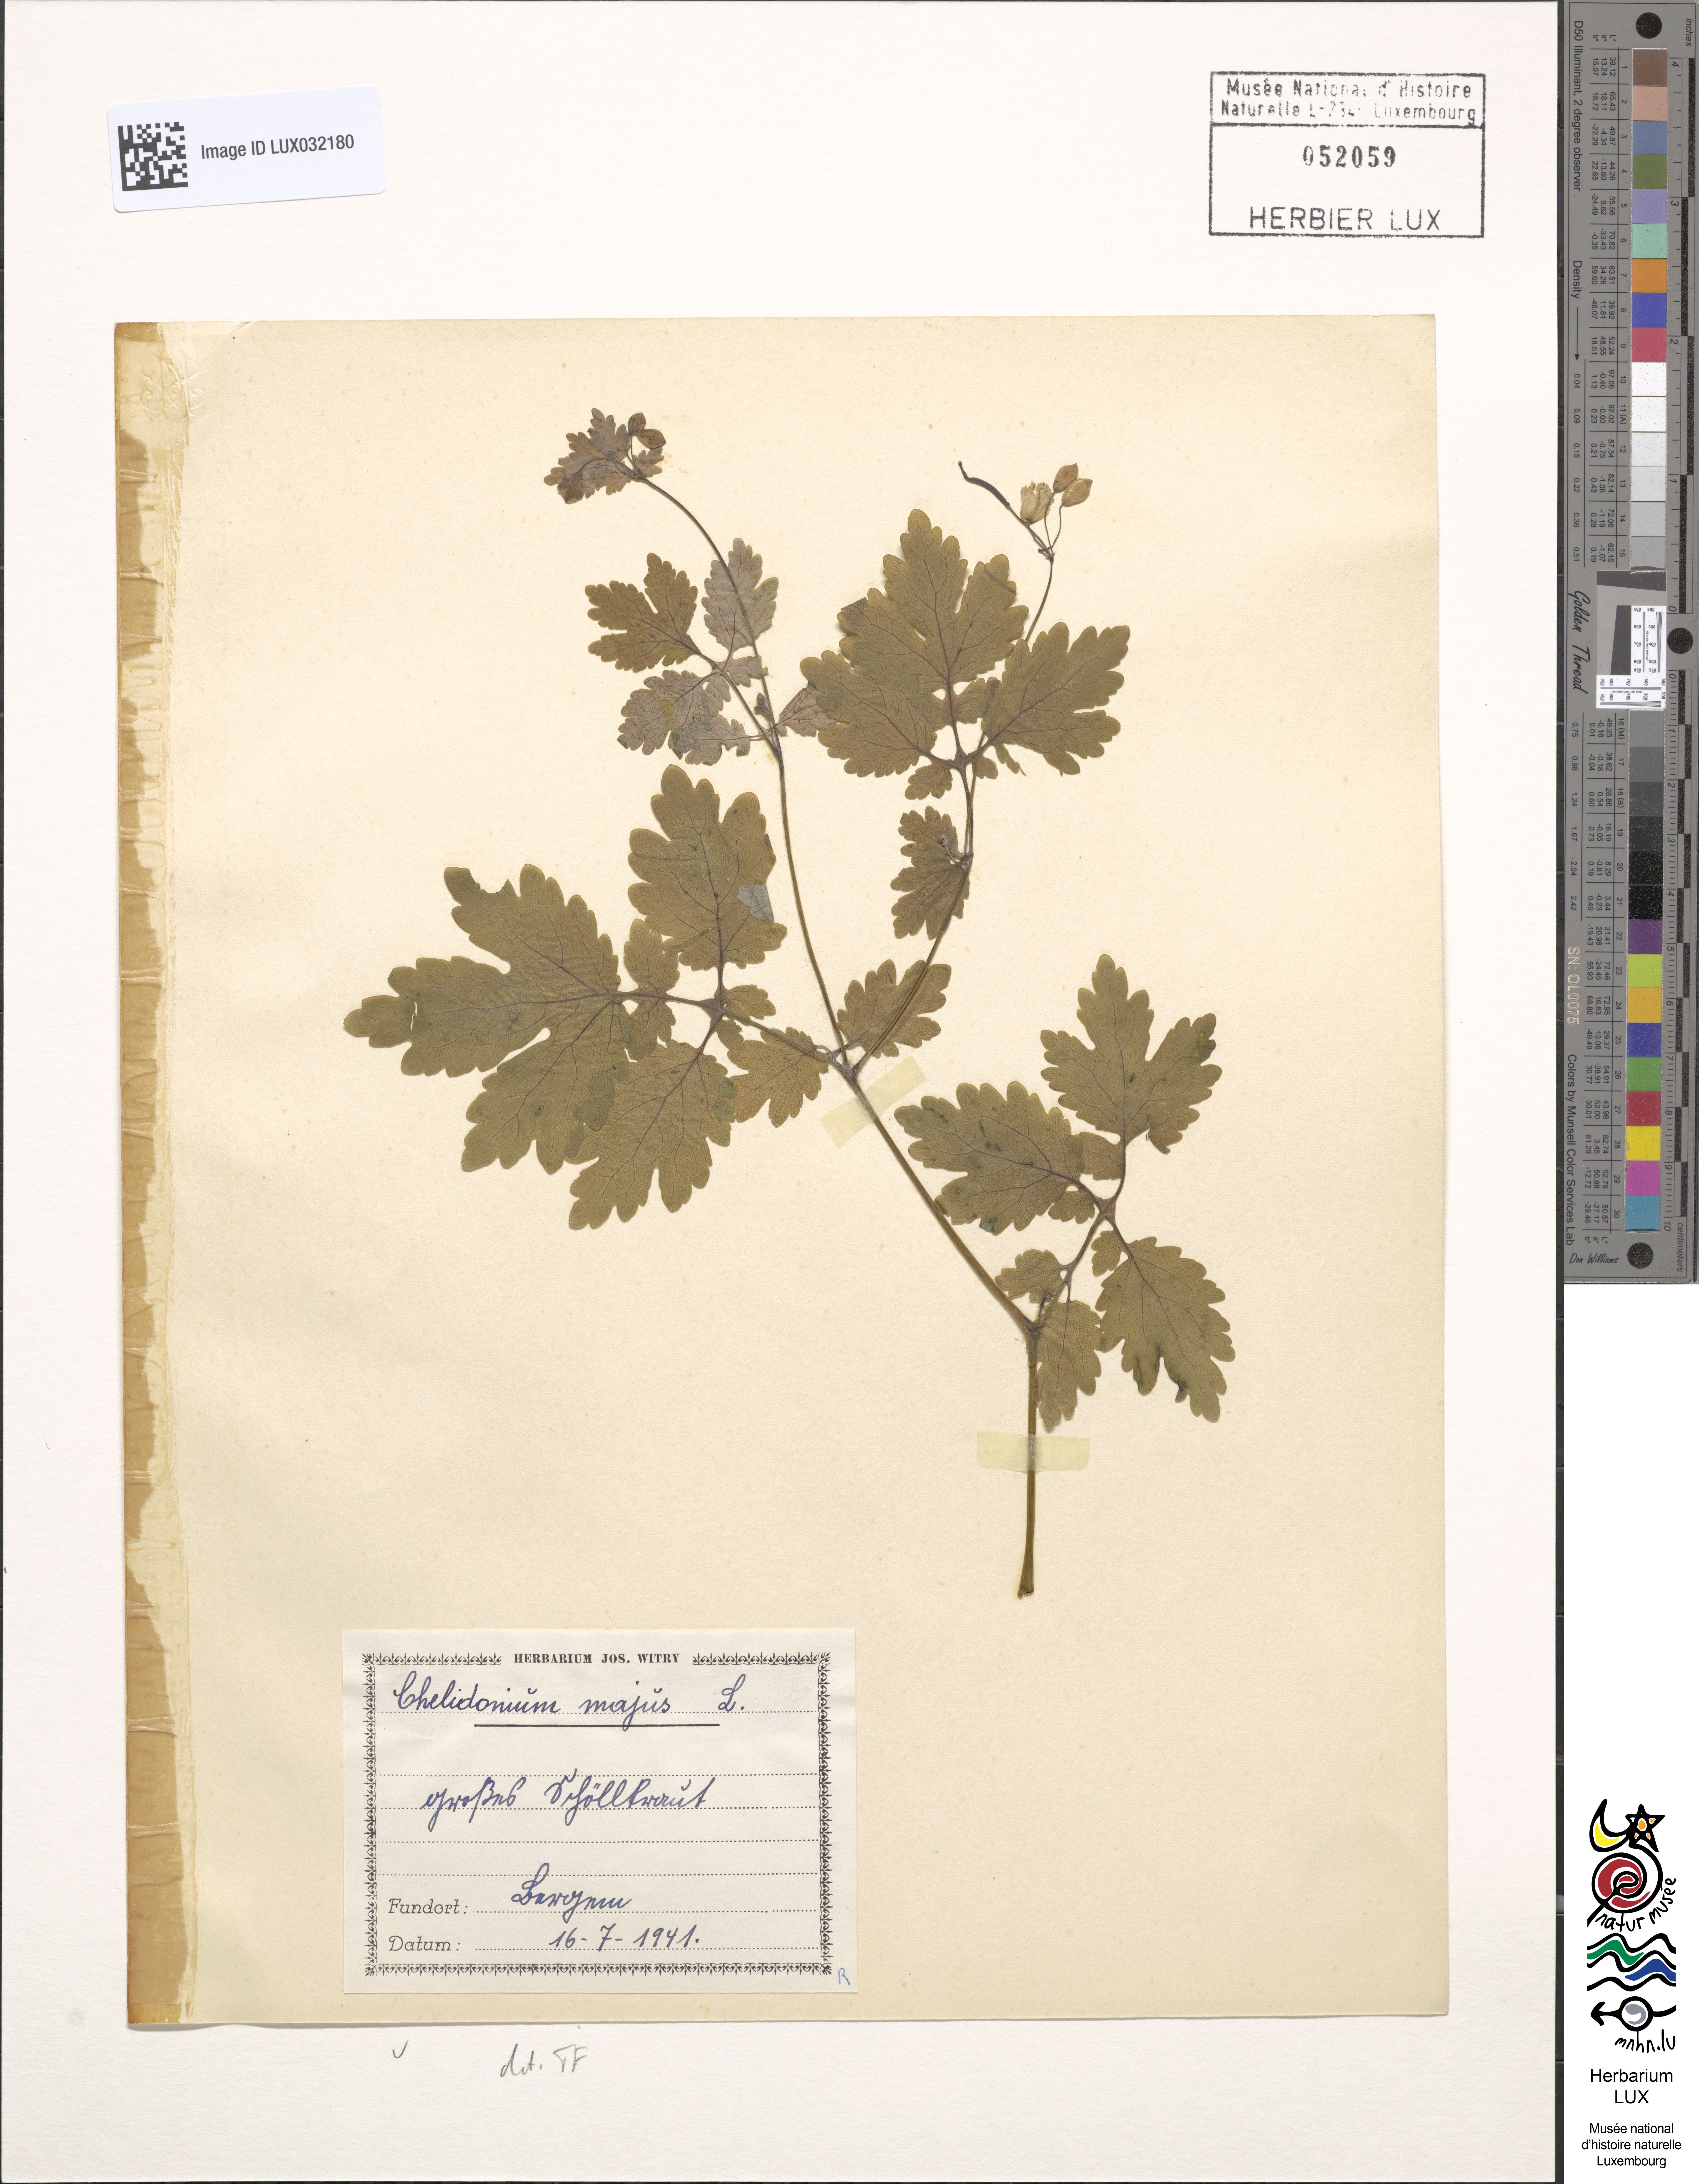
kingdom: Plantae
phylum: Tracheophyta
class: Magnoliopsida
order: Ranunculales
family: Papaveraceae
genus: Chelidonium
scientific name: Chelidonium majus
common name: Greater celandine
